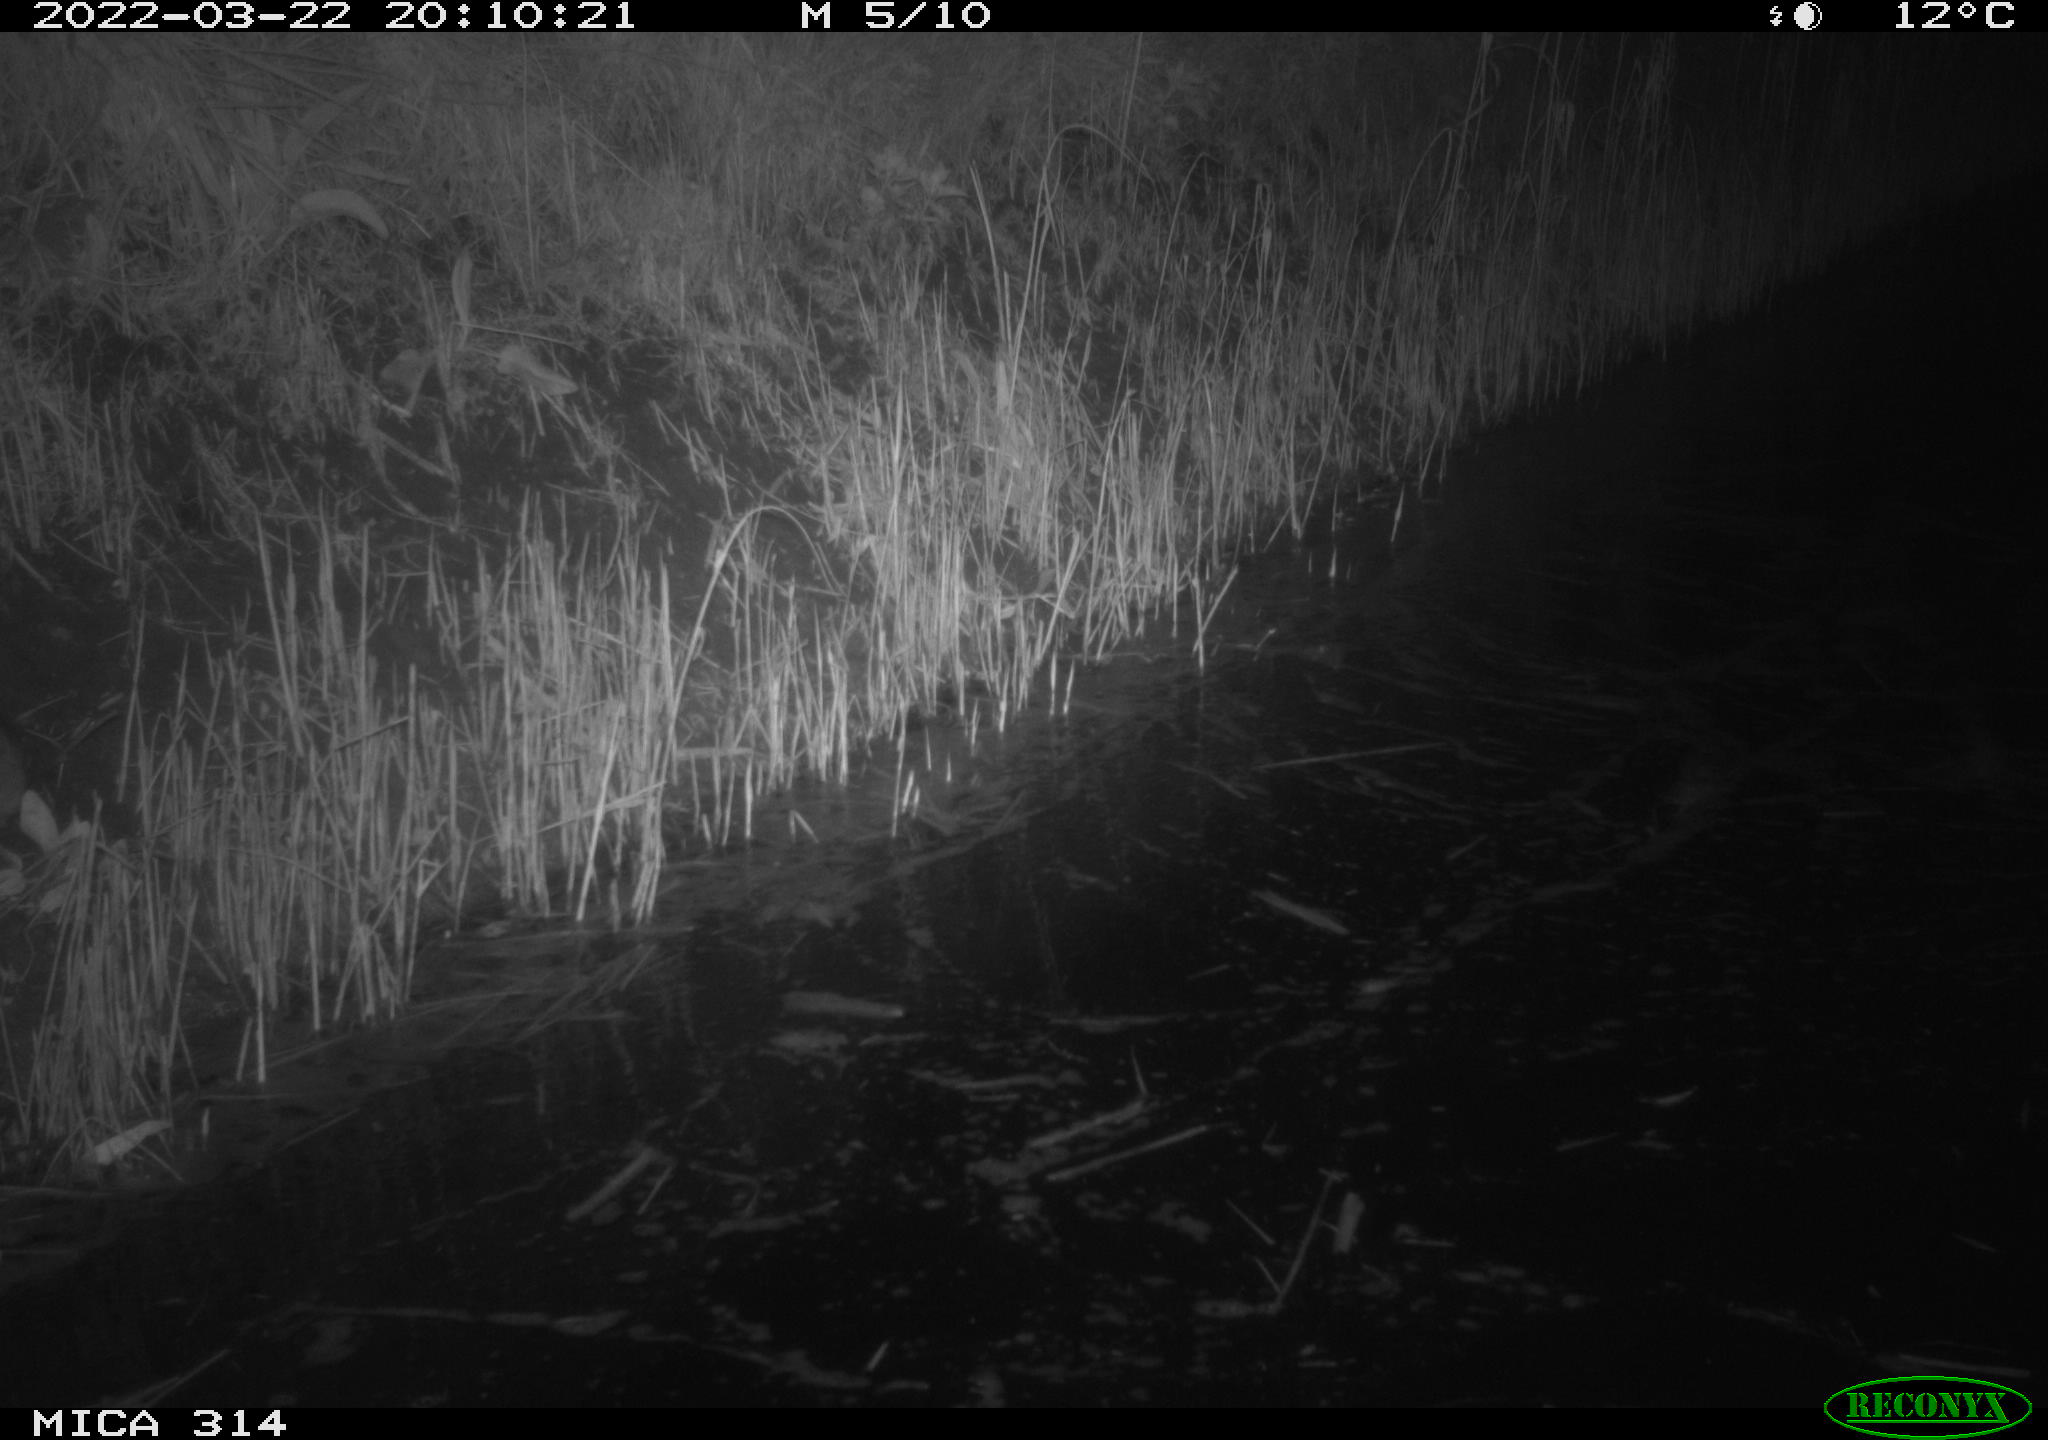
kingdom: Animalia
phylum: Chordata
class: Mammalia
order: Rodentia
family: Muridae
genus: Rattus
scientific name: Rattus norvegicus
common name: Brown rat
